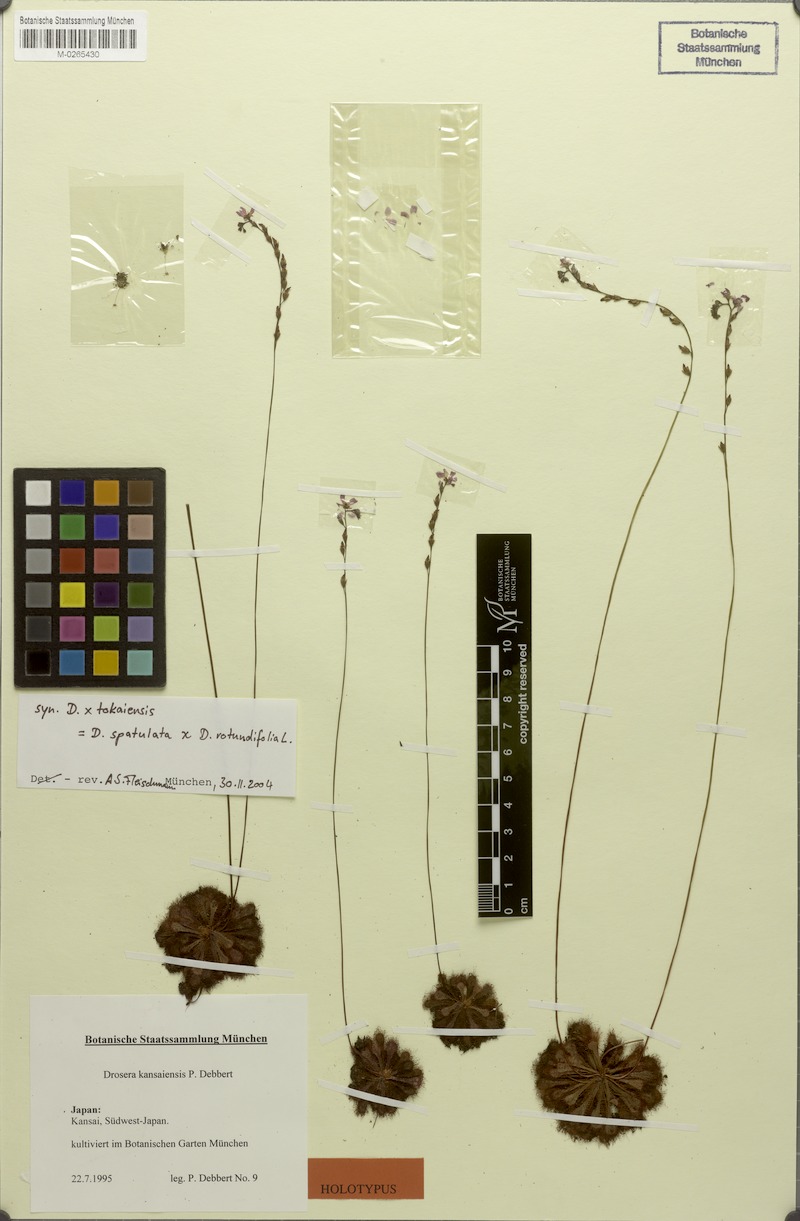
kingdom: Plantae
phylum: Tracheophyta
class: Magnoliopsida
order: Caryophyllales
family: Droseraceae
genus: Drosera
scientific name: Drosera spatulata
